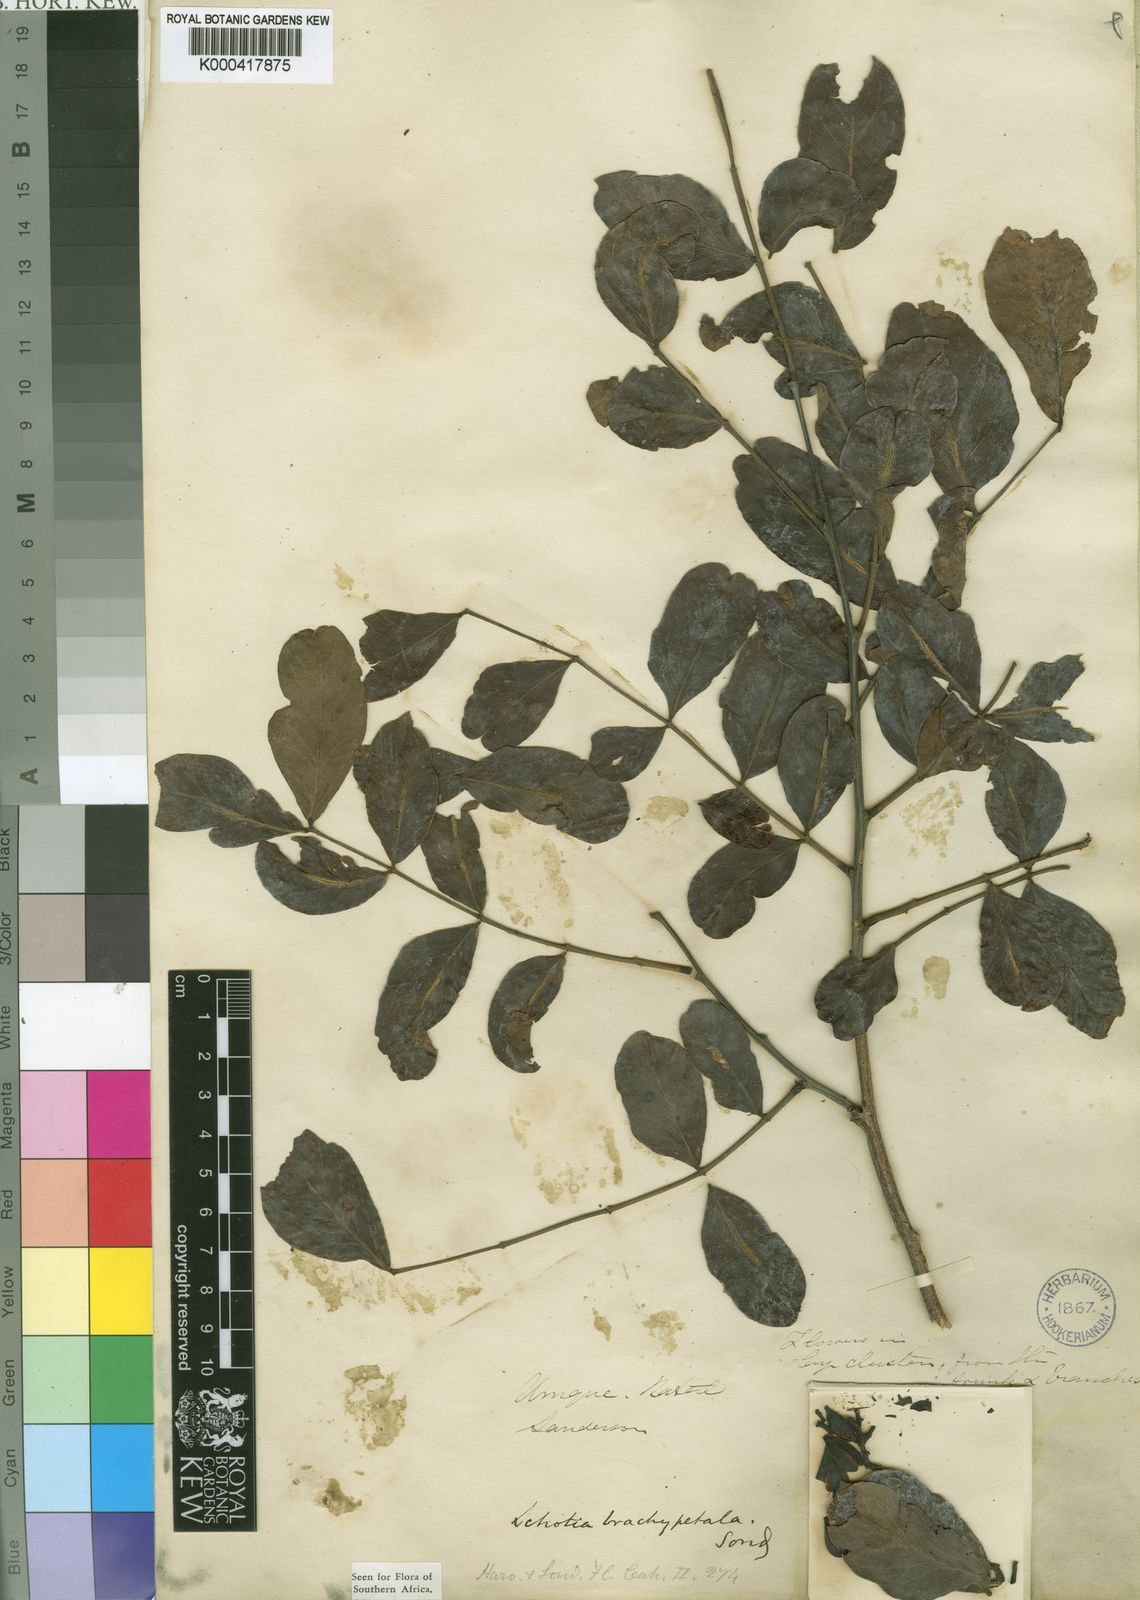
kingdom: Plantae
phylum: Tracheophyta
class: Magnoliopsida
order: Fabales
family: Fabaceae
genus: Schotia
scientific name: Schotia brachypetala
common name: Weeping boer-bean
